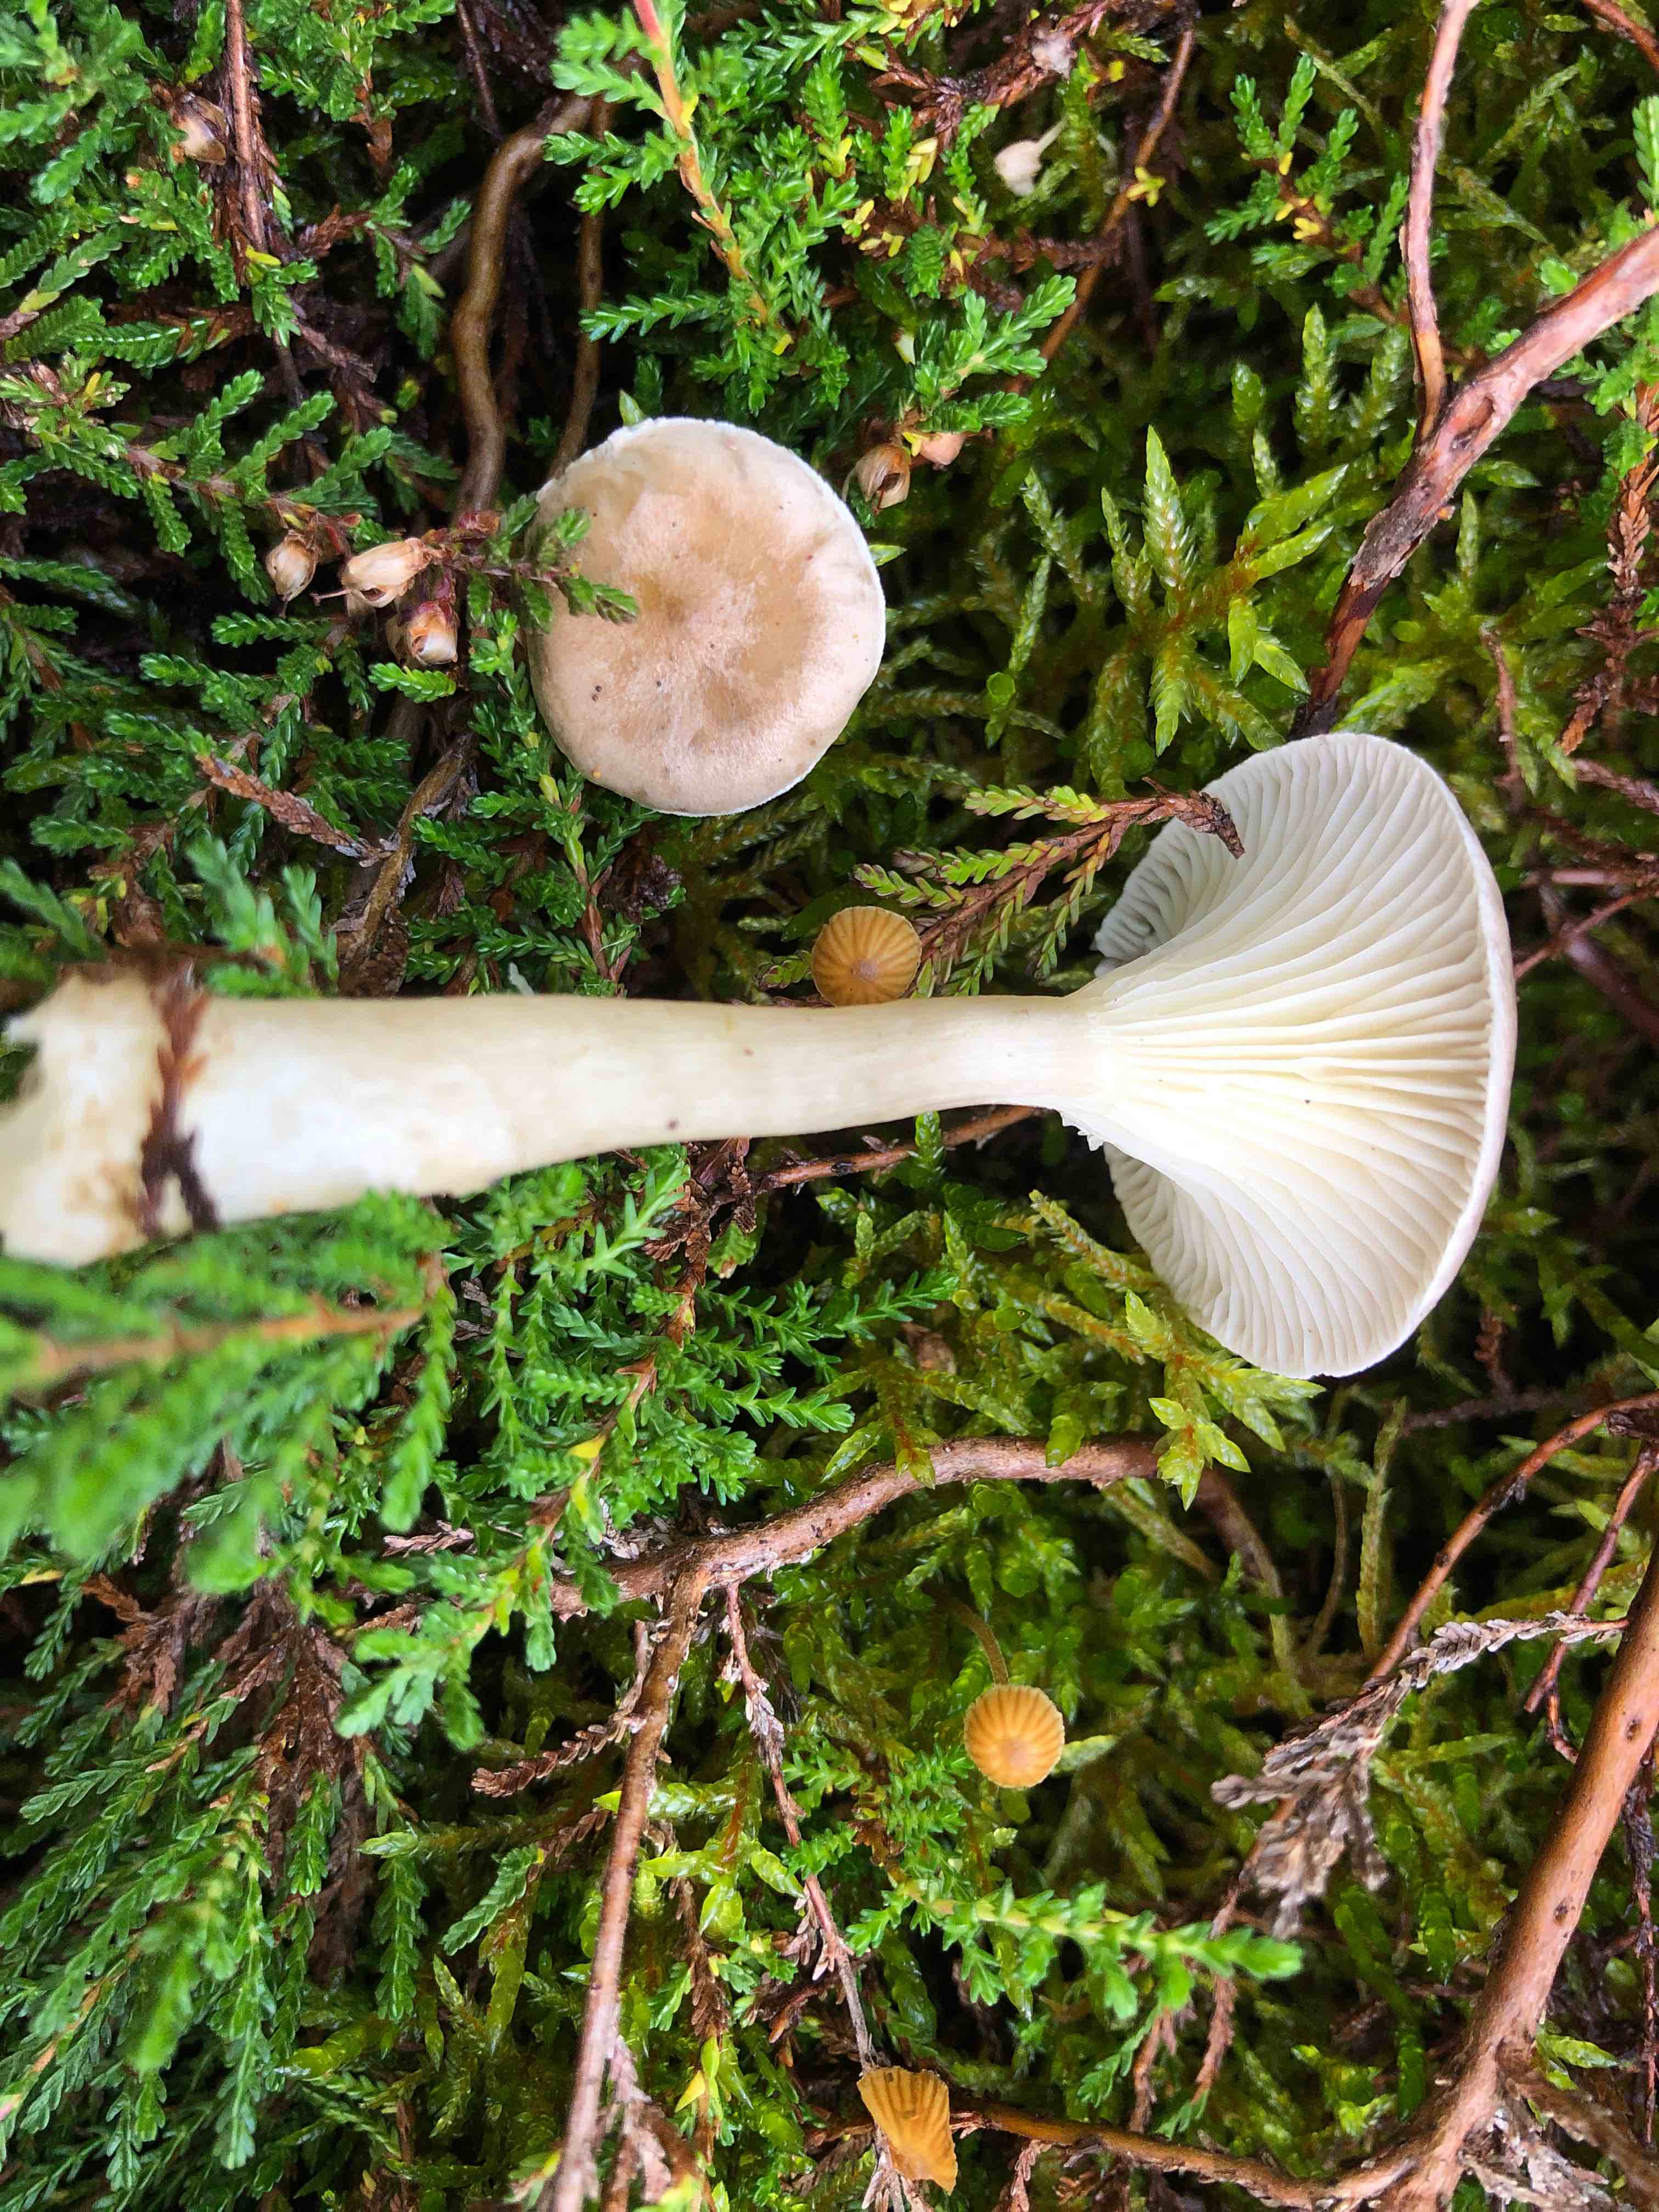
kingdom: Fungi
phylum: Basidiomycota
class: Agaricomycetes
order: Agaricales
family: Hygrophoraceae
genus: Ampulloclitocybe
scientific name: Ampulloclitocybe clavipes
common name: køllefod
